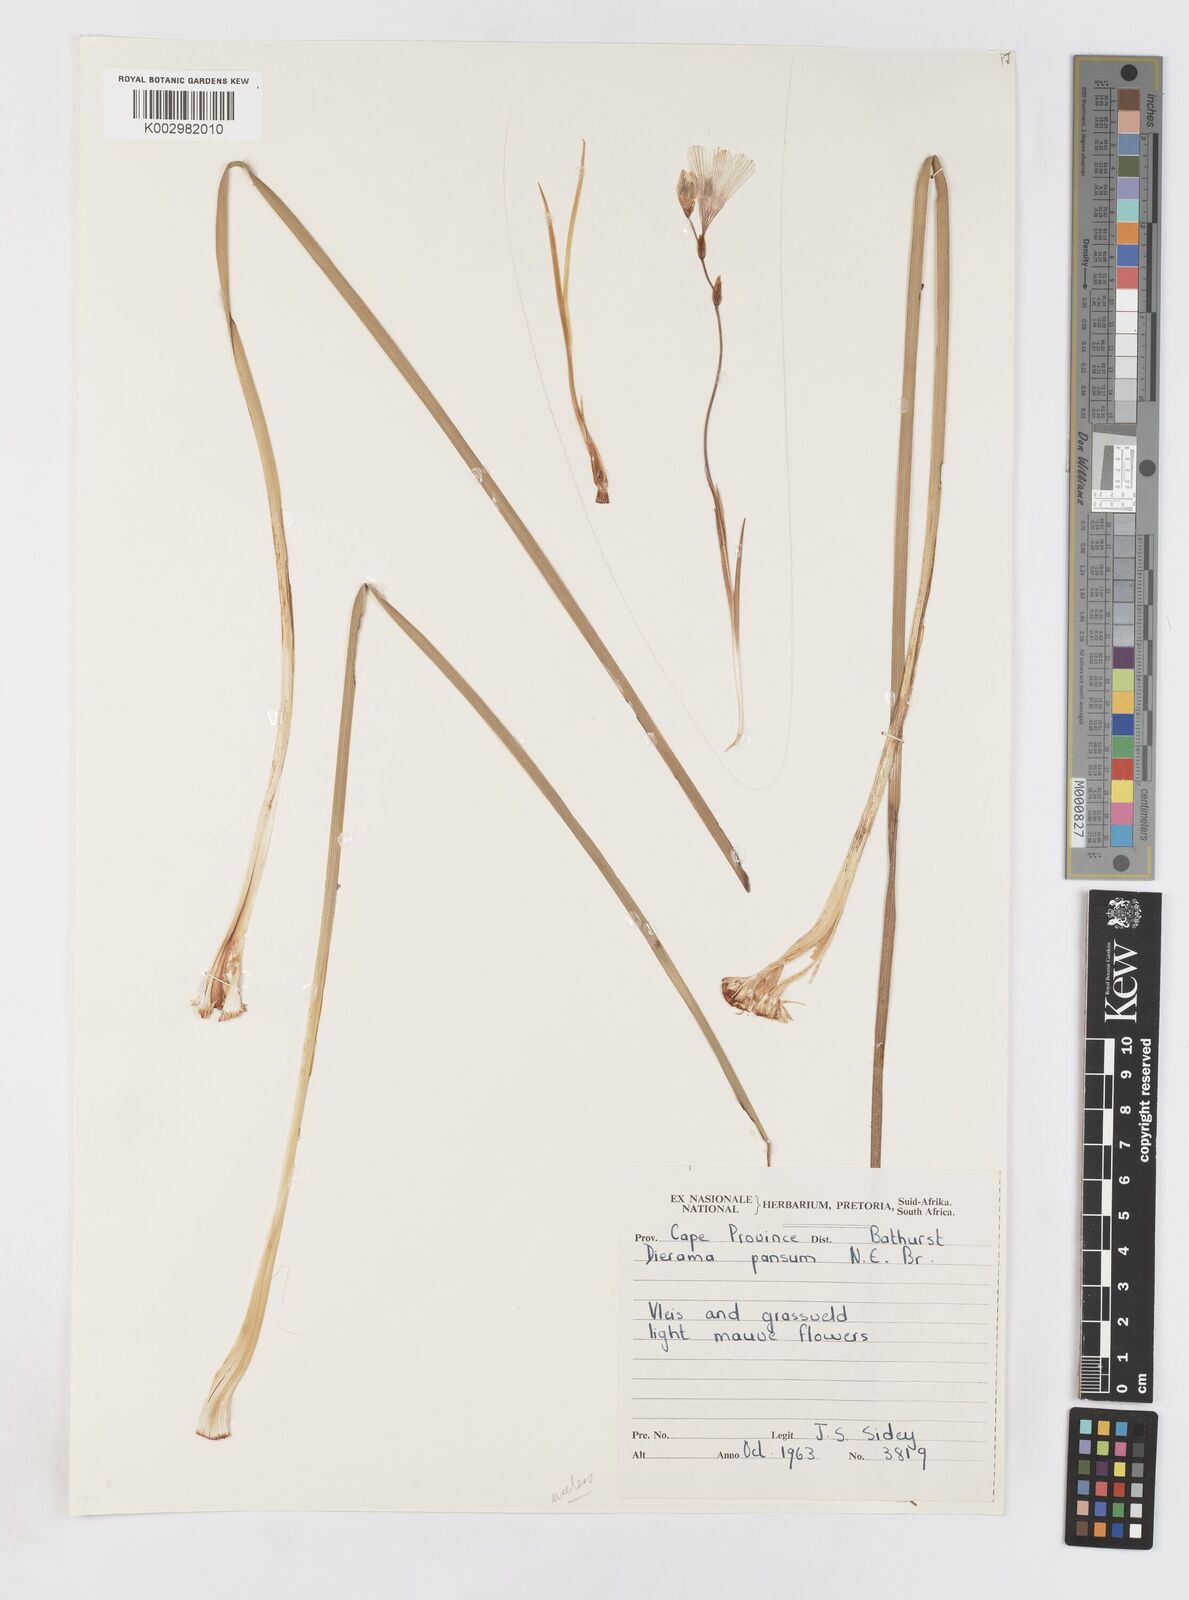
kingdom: Plantae
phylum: Tracheophyta
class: Liliopsida
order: Asparagales
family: Iridaceae
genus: Dierama
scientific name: Dierama
